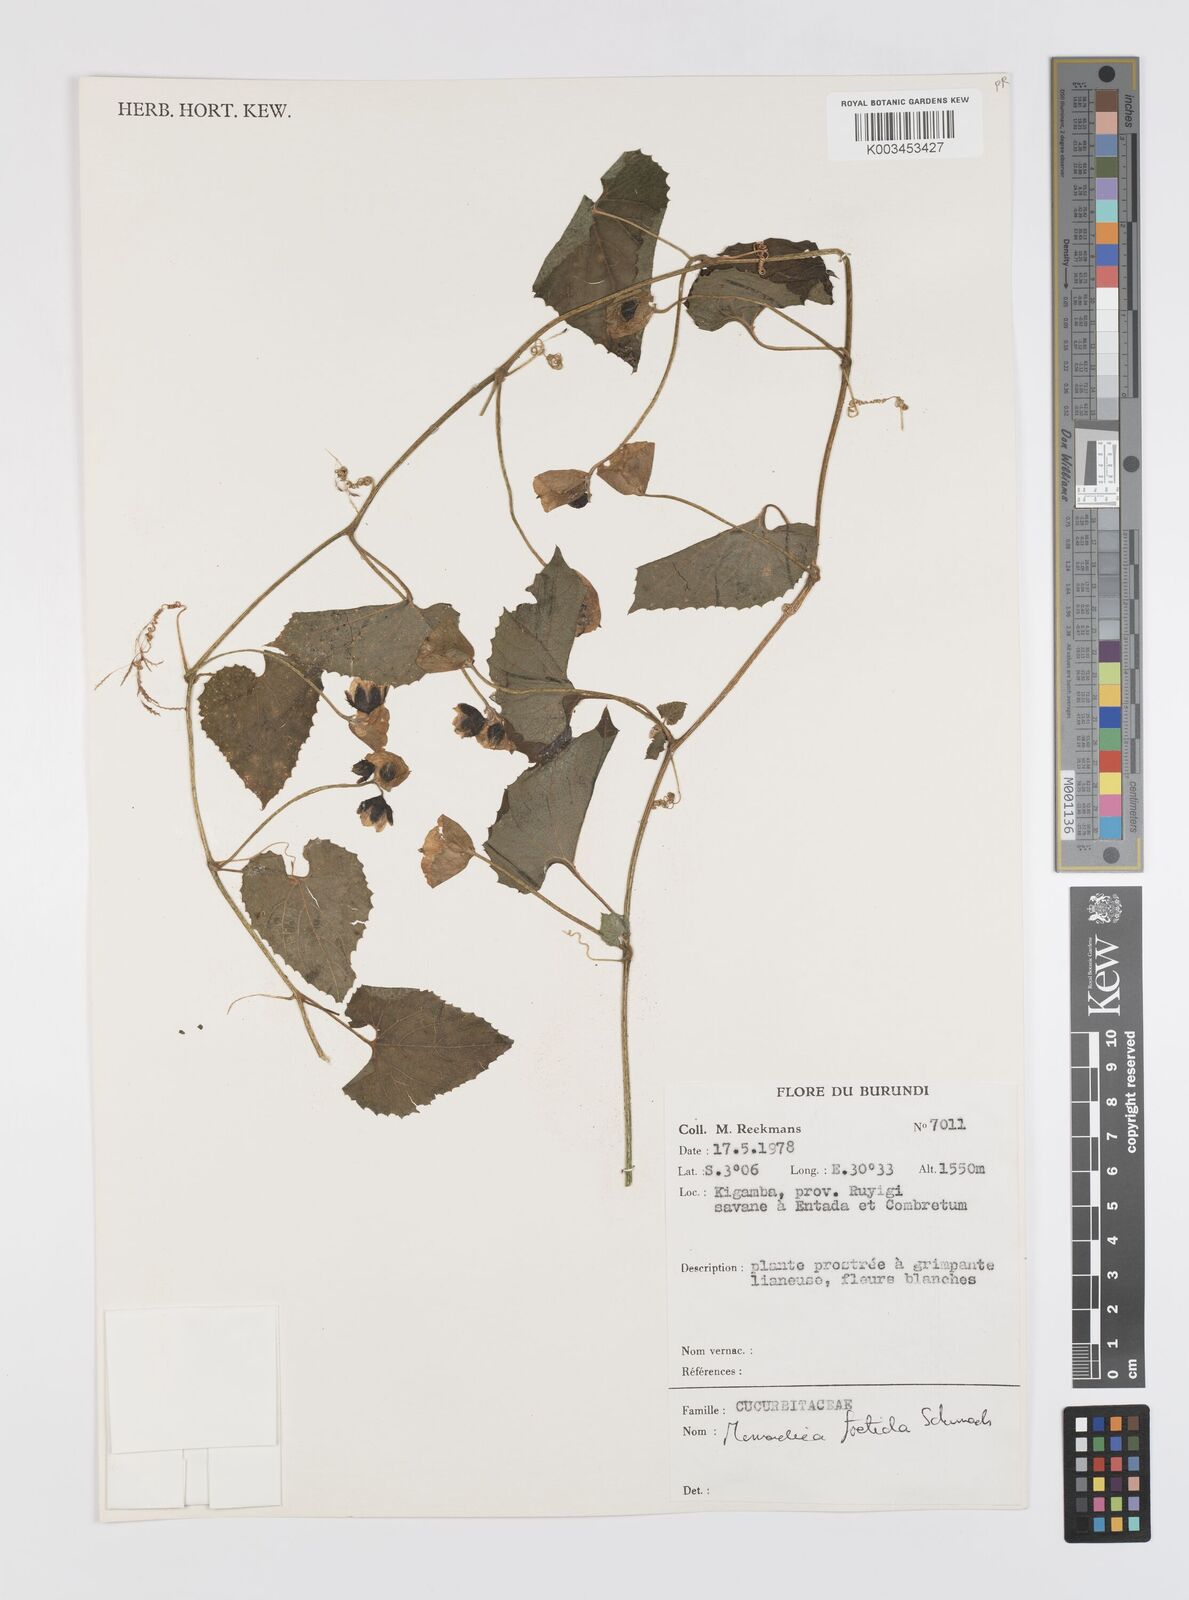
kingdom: Plantae
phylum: Tracheophyta
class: Magnoliopsida
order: Cucurbitales
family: Cucurbitaceae
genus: Momordica
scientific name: Momordica foetida
